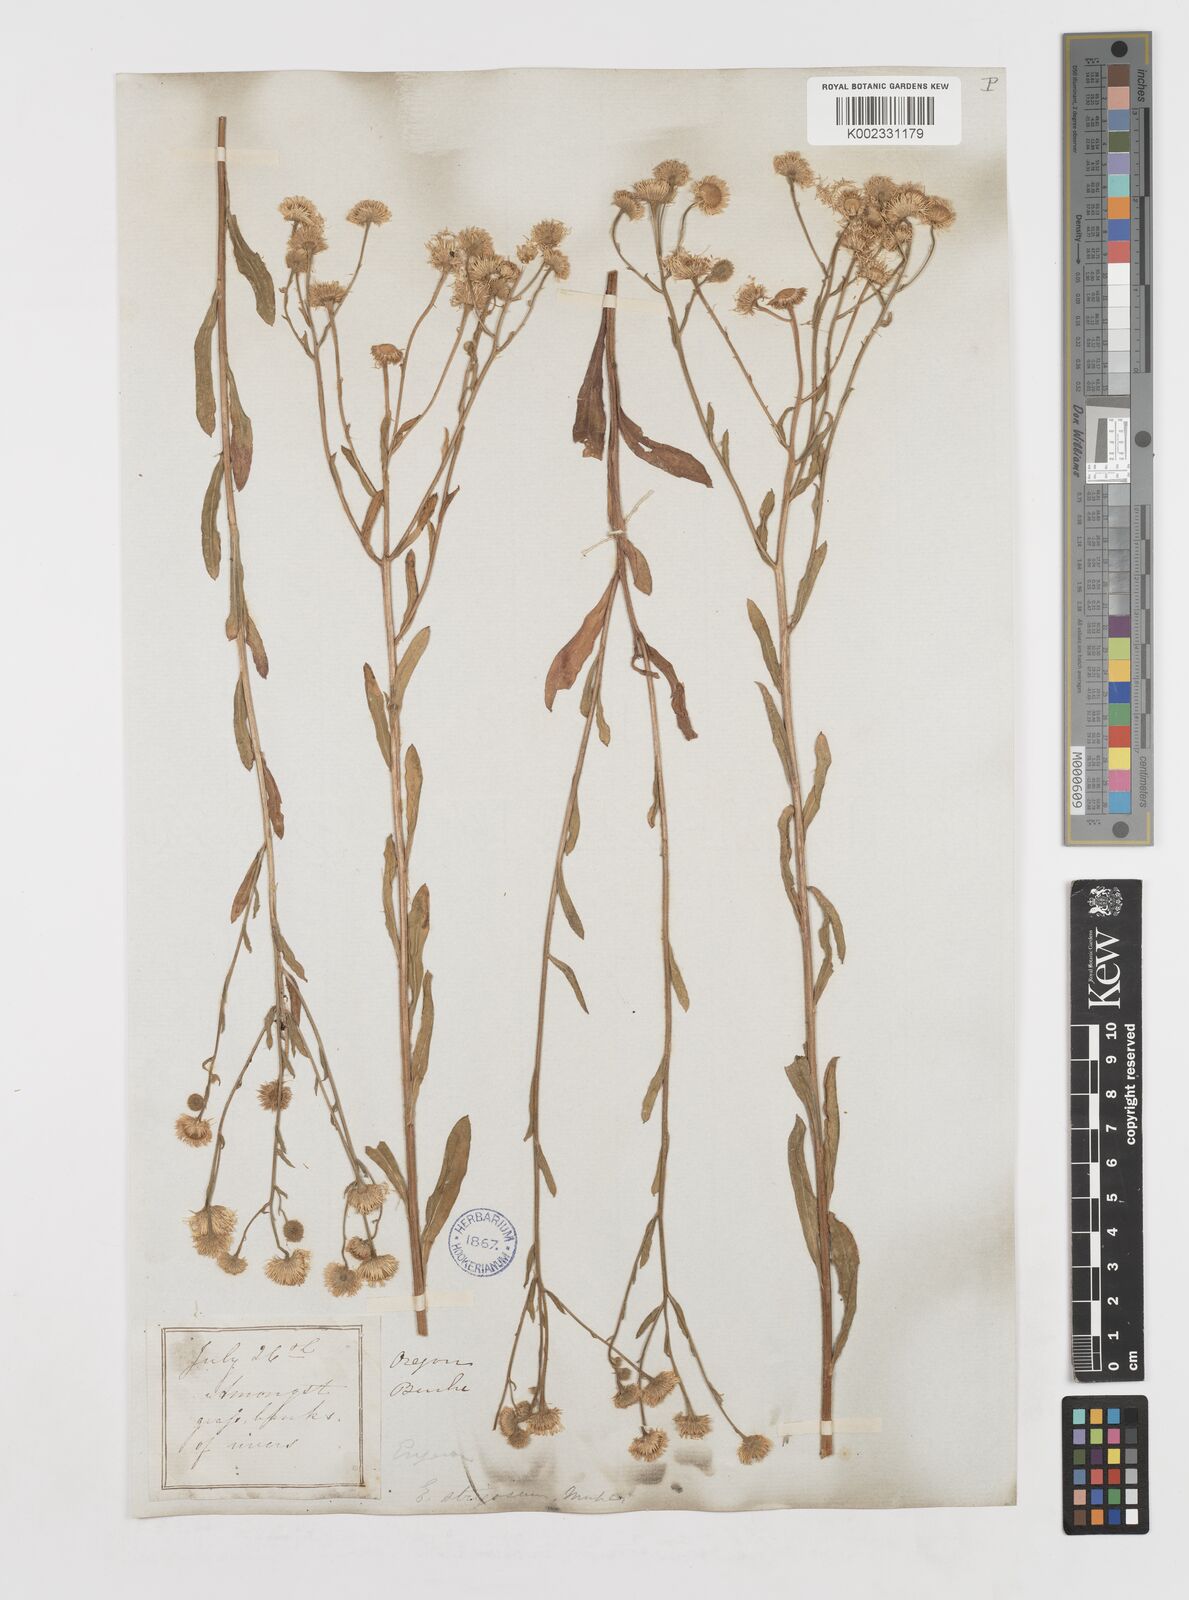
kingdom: Plantae
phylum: Tracheophyta
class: Magnoliopsida
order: Asterales
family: Asteraceae
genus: Erigeron
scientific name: Erigeron strigosus
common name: Common eastern fleabane
